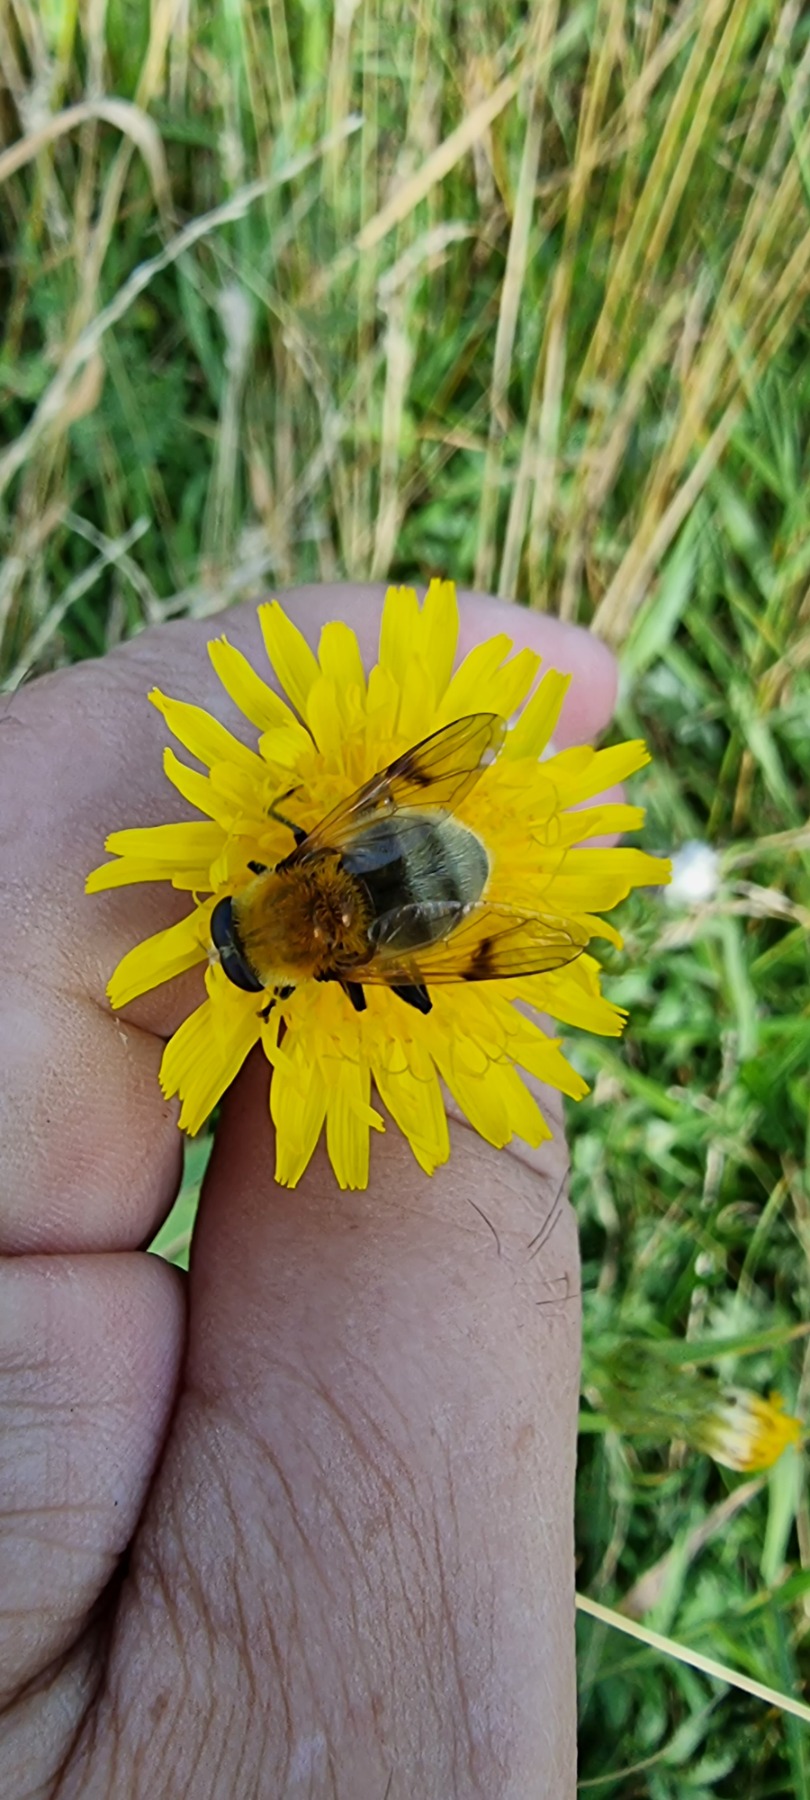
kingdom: Animalia
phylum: Arthropoda
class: Insecta
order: Diptera
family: Syrphidae
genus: Sericomyia
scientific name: Sericomyia superbiens
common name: Brun bjørnesvirreflue
